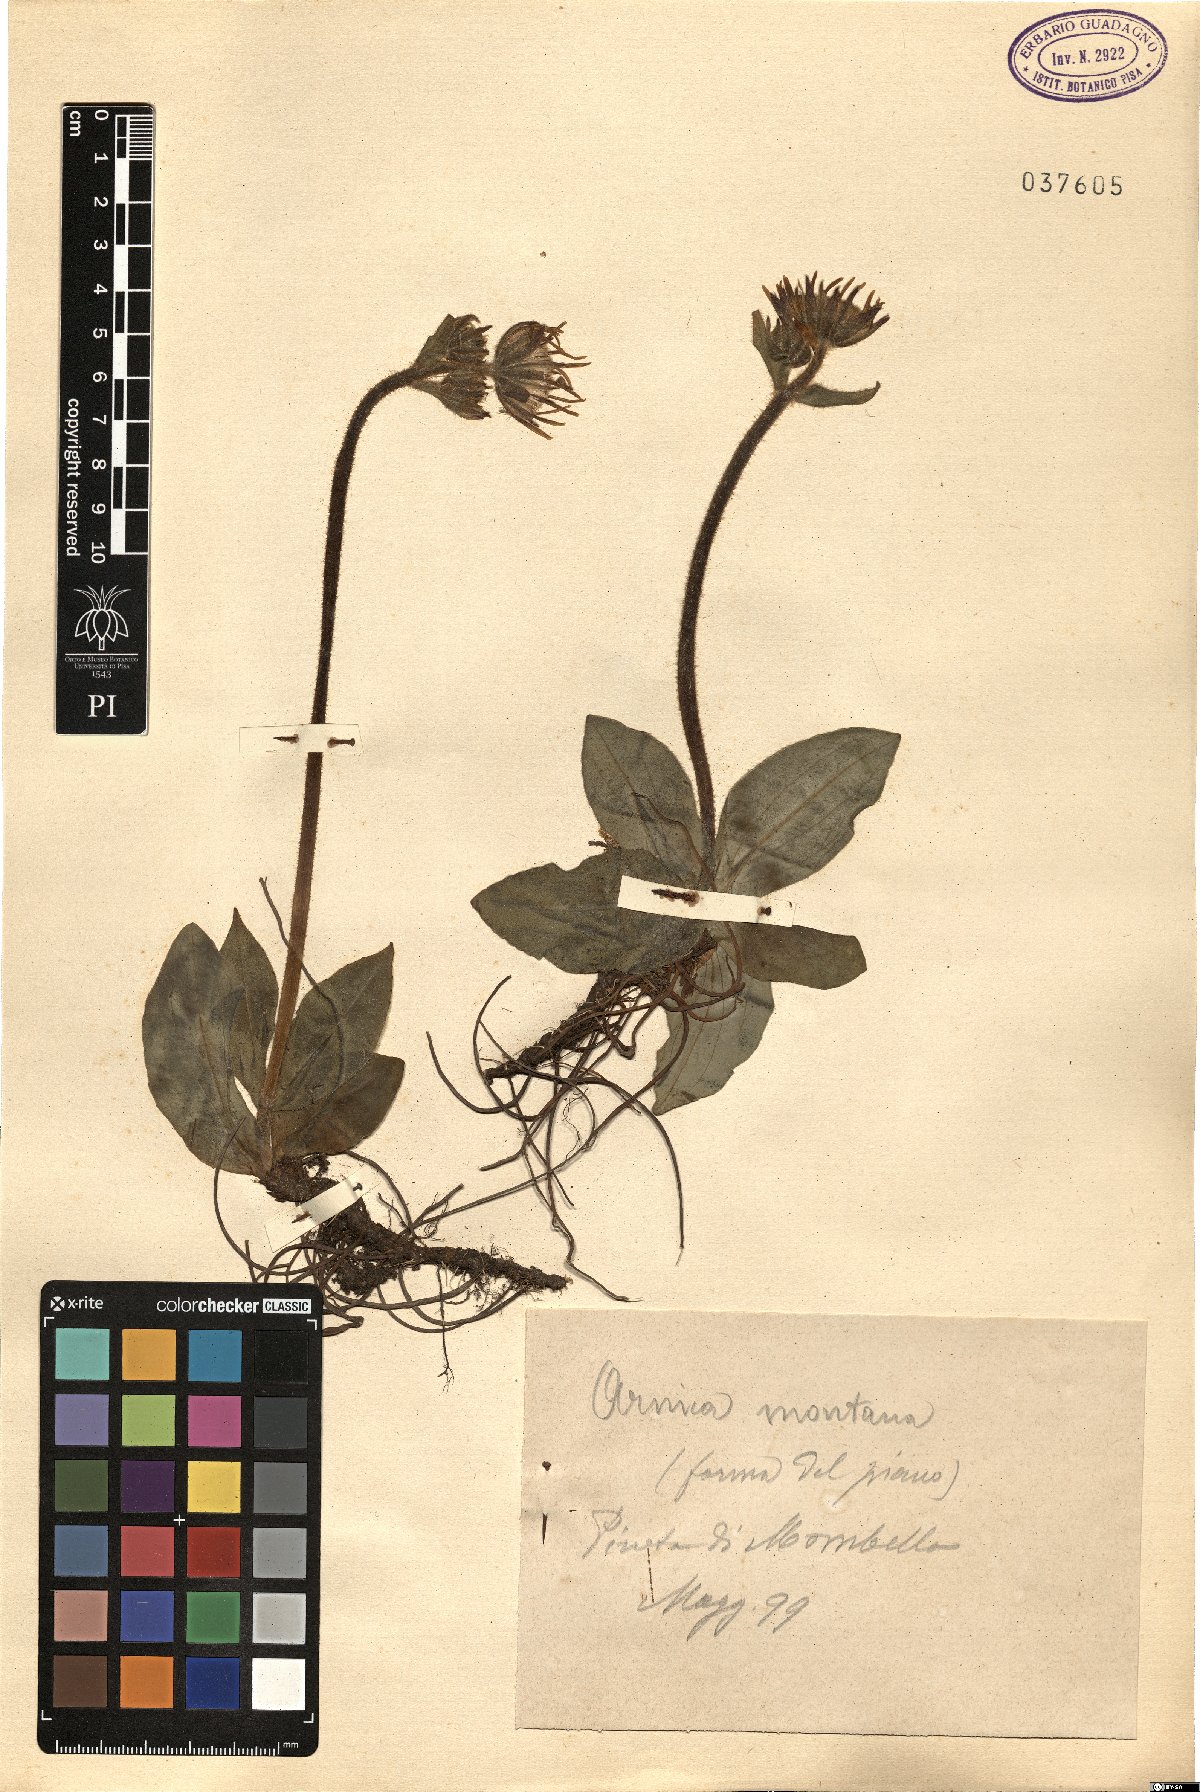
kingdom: Plantae
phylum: Tracheophyta
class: Magnoliopsida
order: Asterales
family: Asteraceae
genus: Arnica
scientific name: Arnica montana
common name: Leopard's bane
